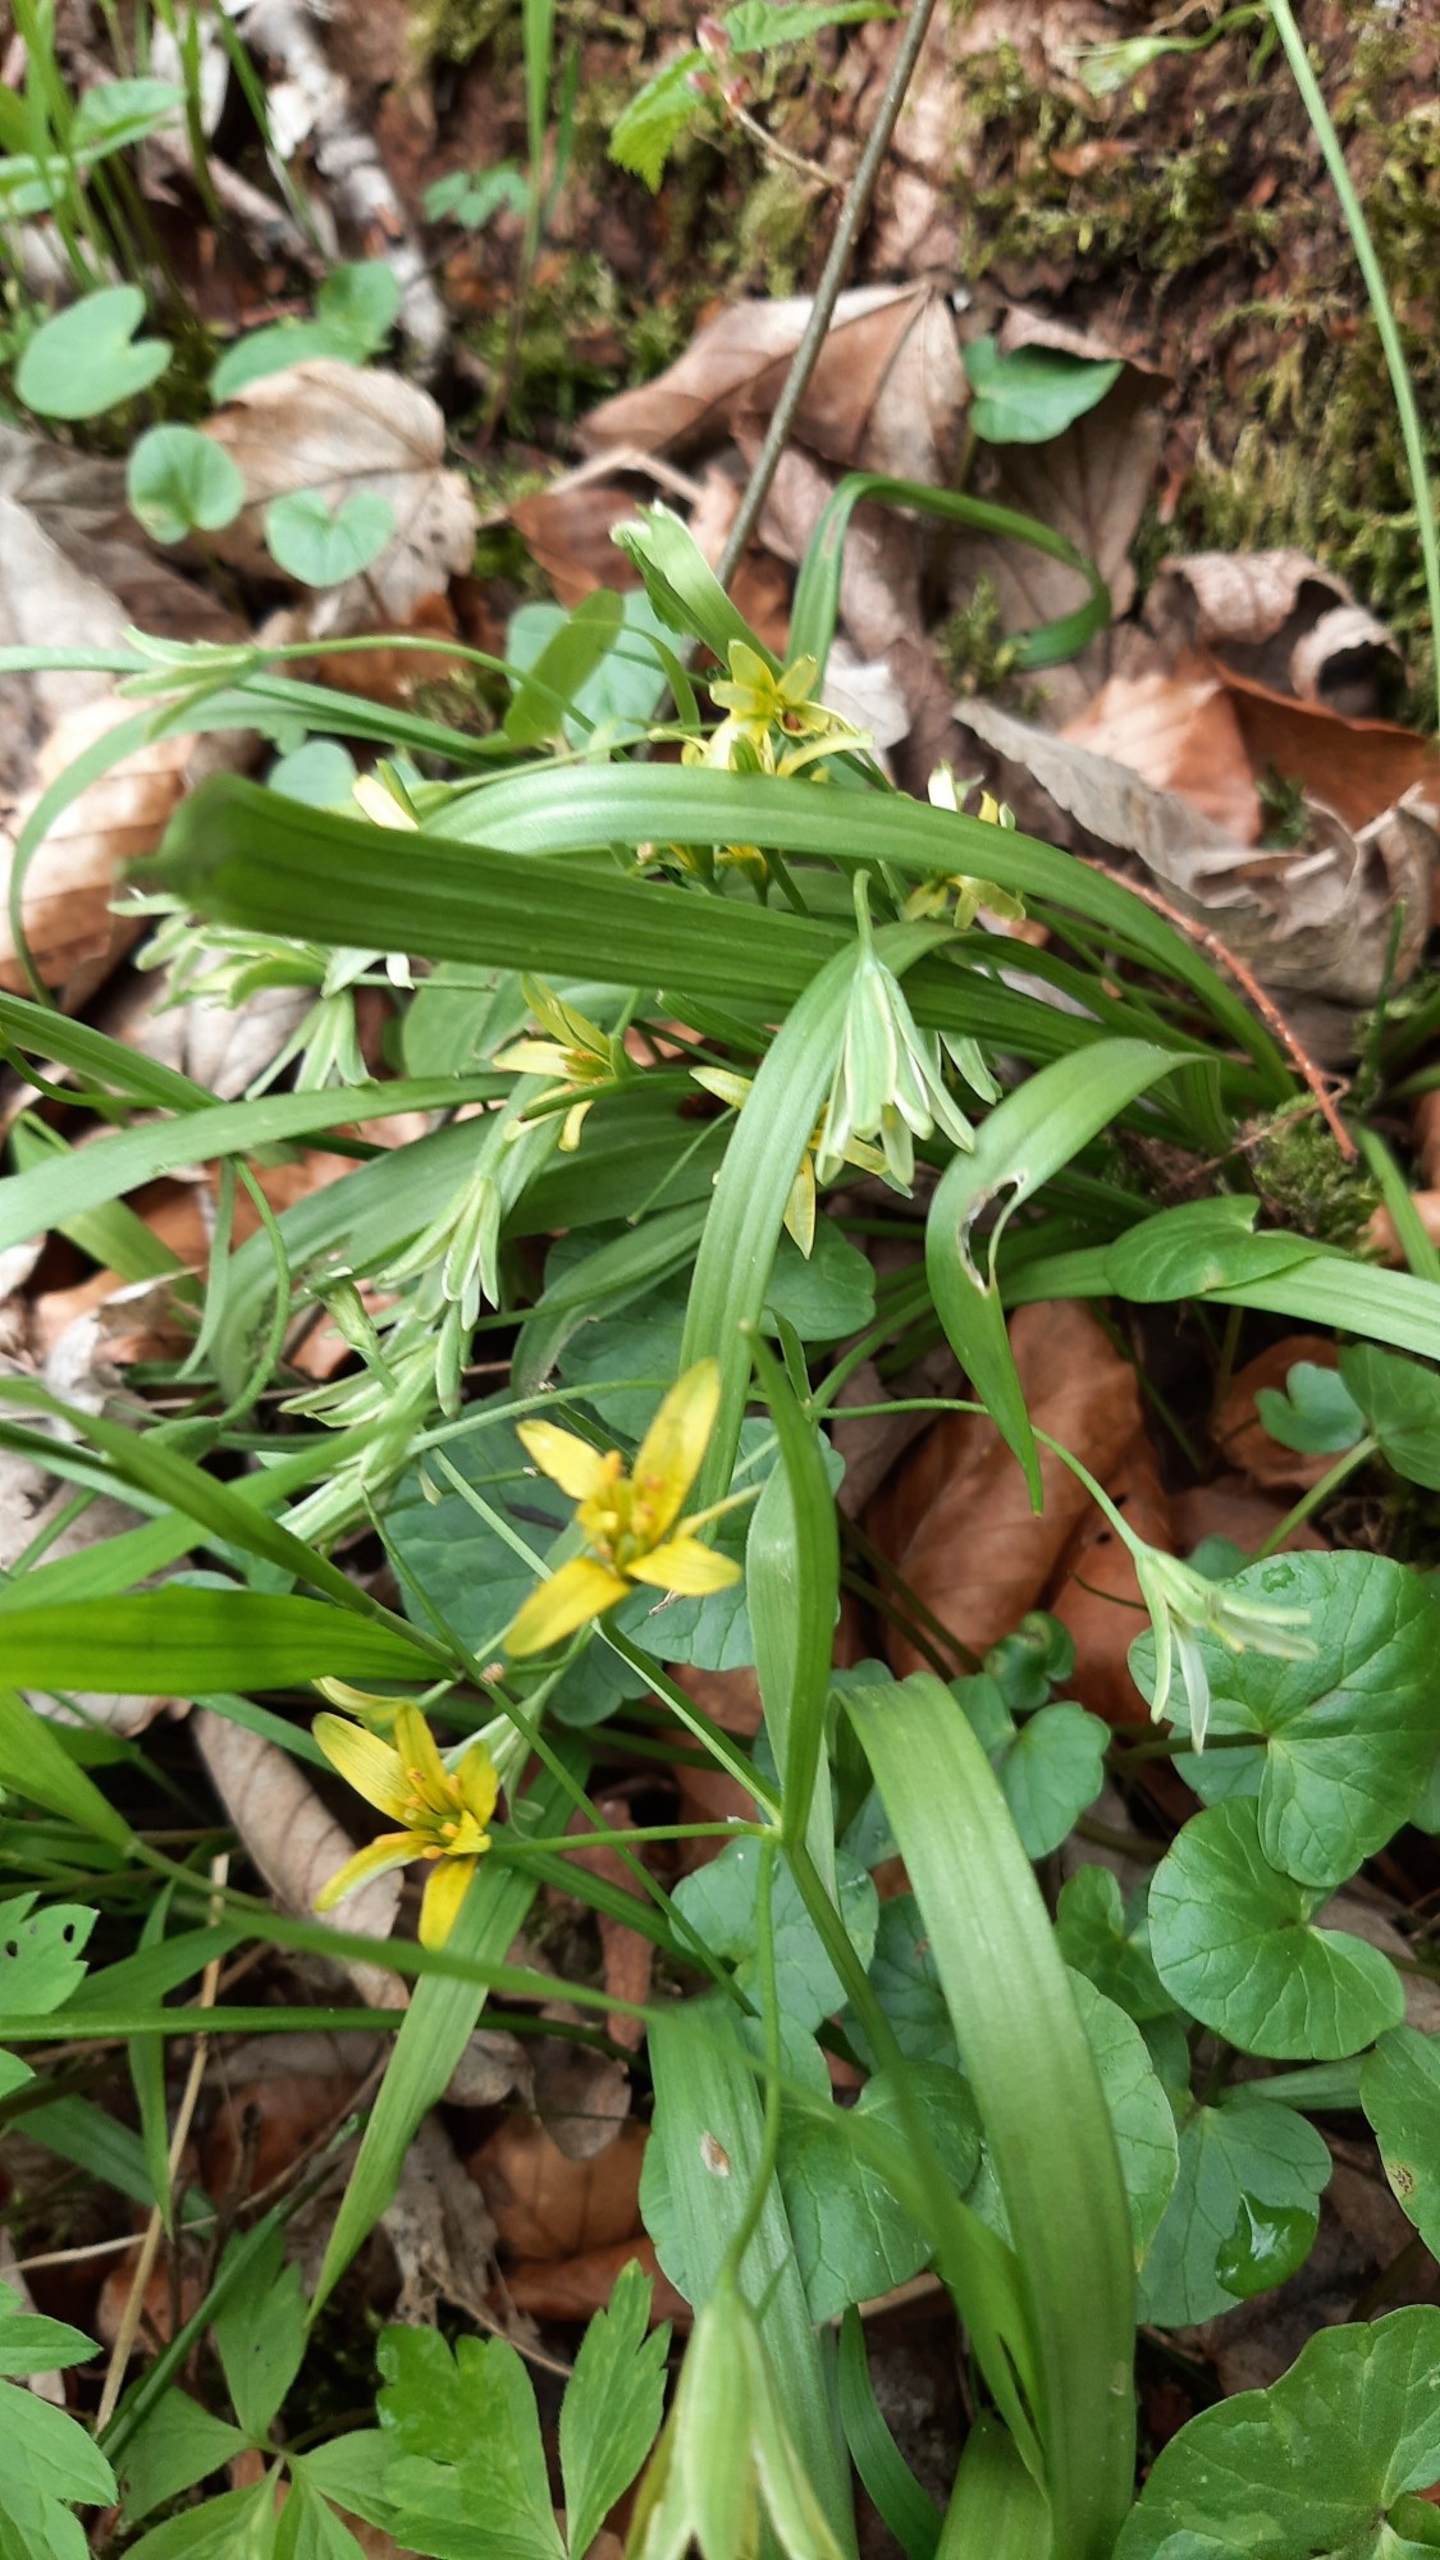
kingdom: Plantae
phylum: Tracheophyta
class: Liliopsida
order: Liliales
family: Liliaceae
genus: Gagea
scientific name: Gagea lutea
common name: Almindelig guldstjerne
